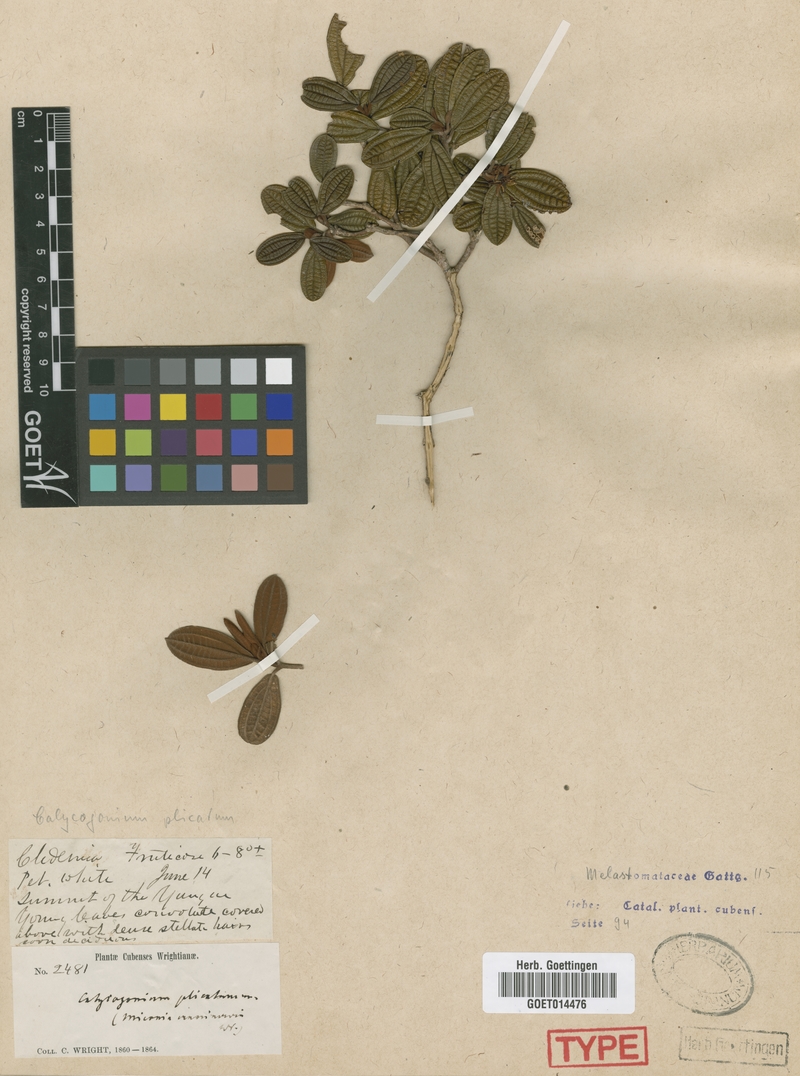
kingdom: Plantae
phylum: Tracheophyta
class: Magnoliopsida
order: Myrtales
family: Melastomataceae
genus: Miconia
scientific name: Miconia plicata
